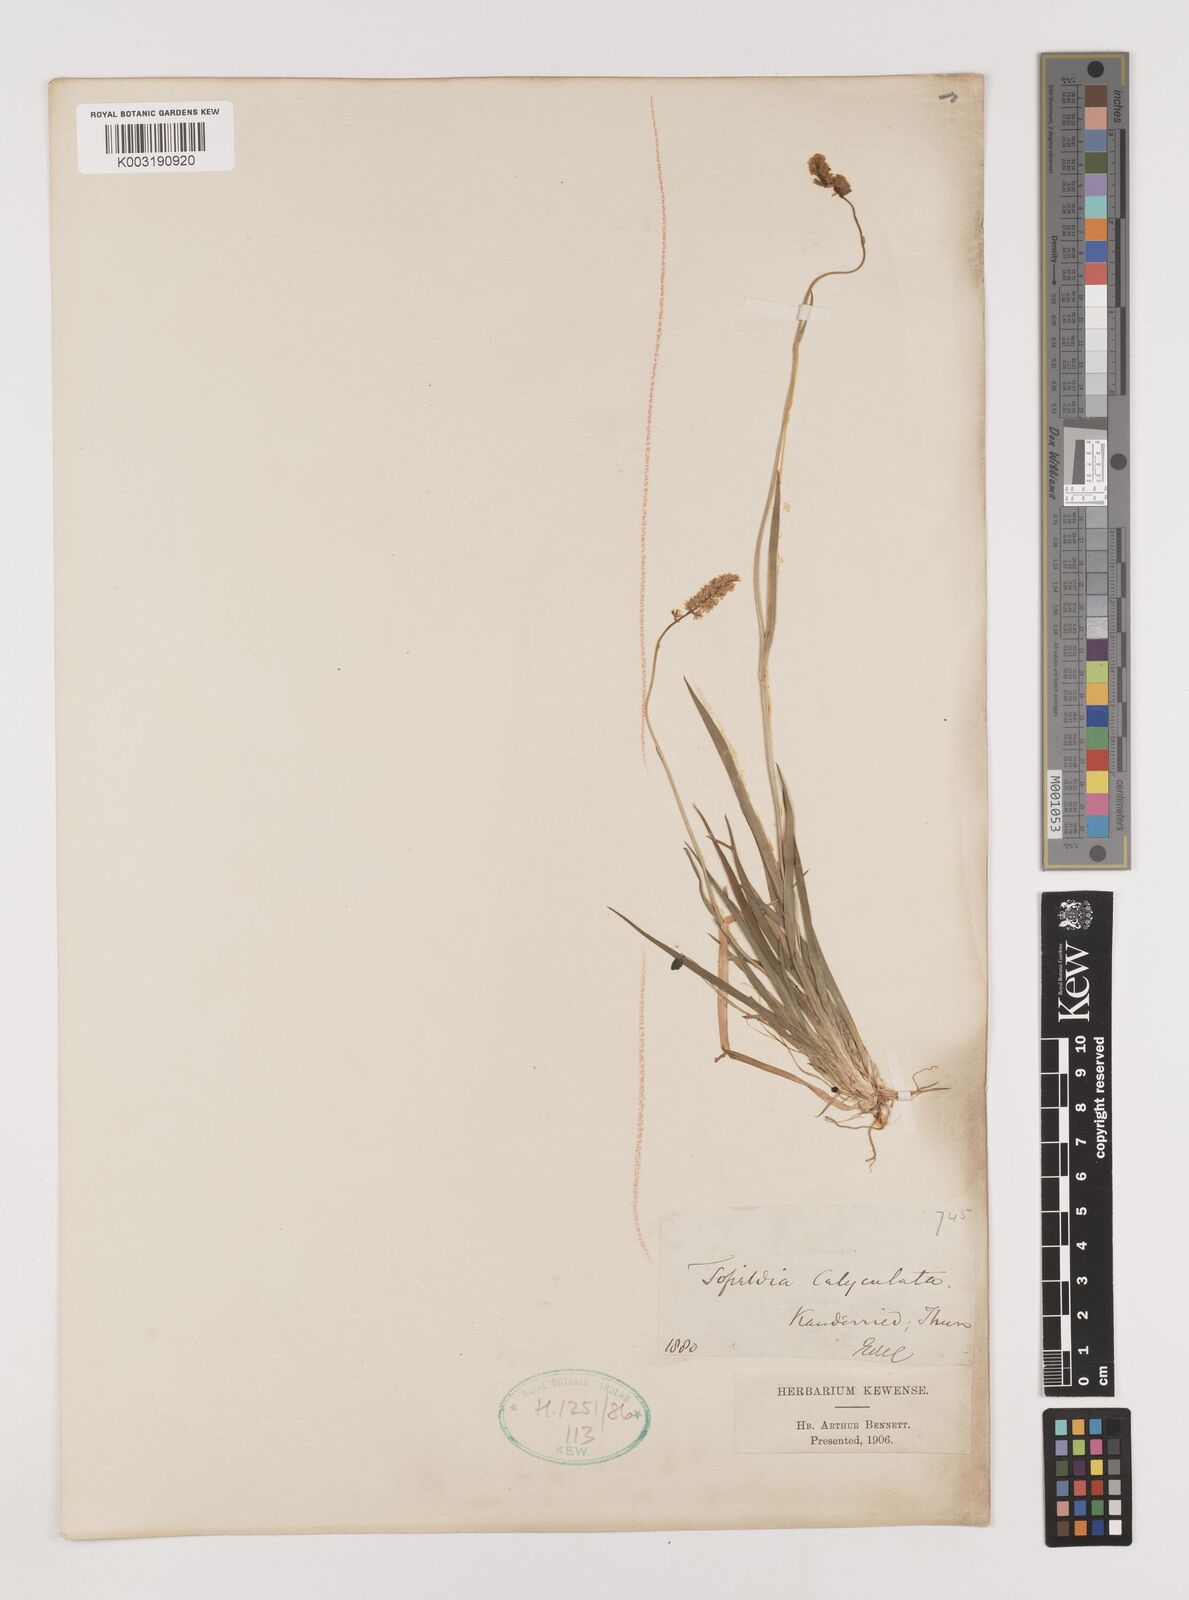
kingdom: Plantae
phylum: Tracheophyta
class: Liliopsida
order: Alismatales
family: Tofieldiaceae
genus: Tofieldia
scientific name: Tofieldia calyculata
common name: German-asphodel
